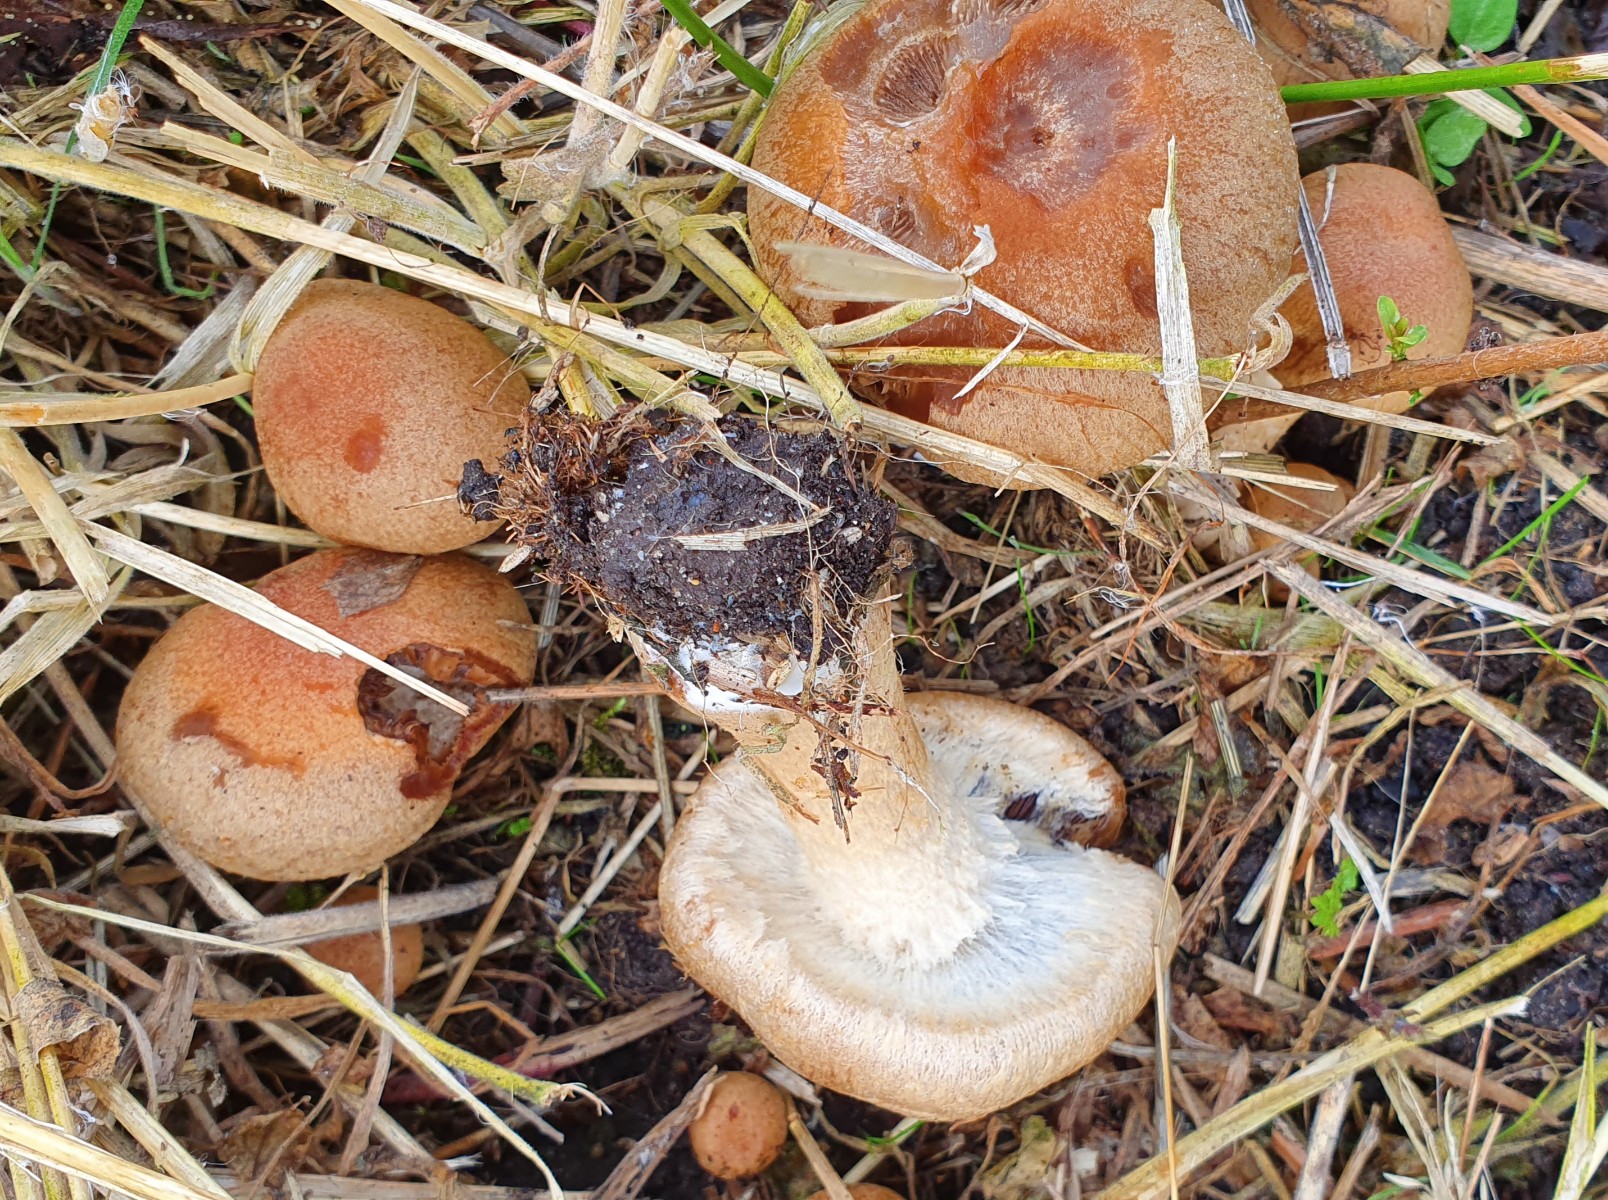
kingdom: Fungi
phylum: Basidiomycota
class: Agaricomycetes
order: Agaricales
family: Psathyrellaceae
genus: Lacrymaria
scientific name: Lacrymaria lacrymabunda
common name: grædende mørkhat
